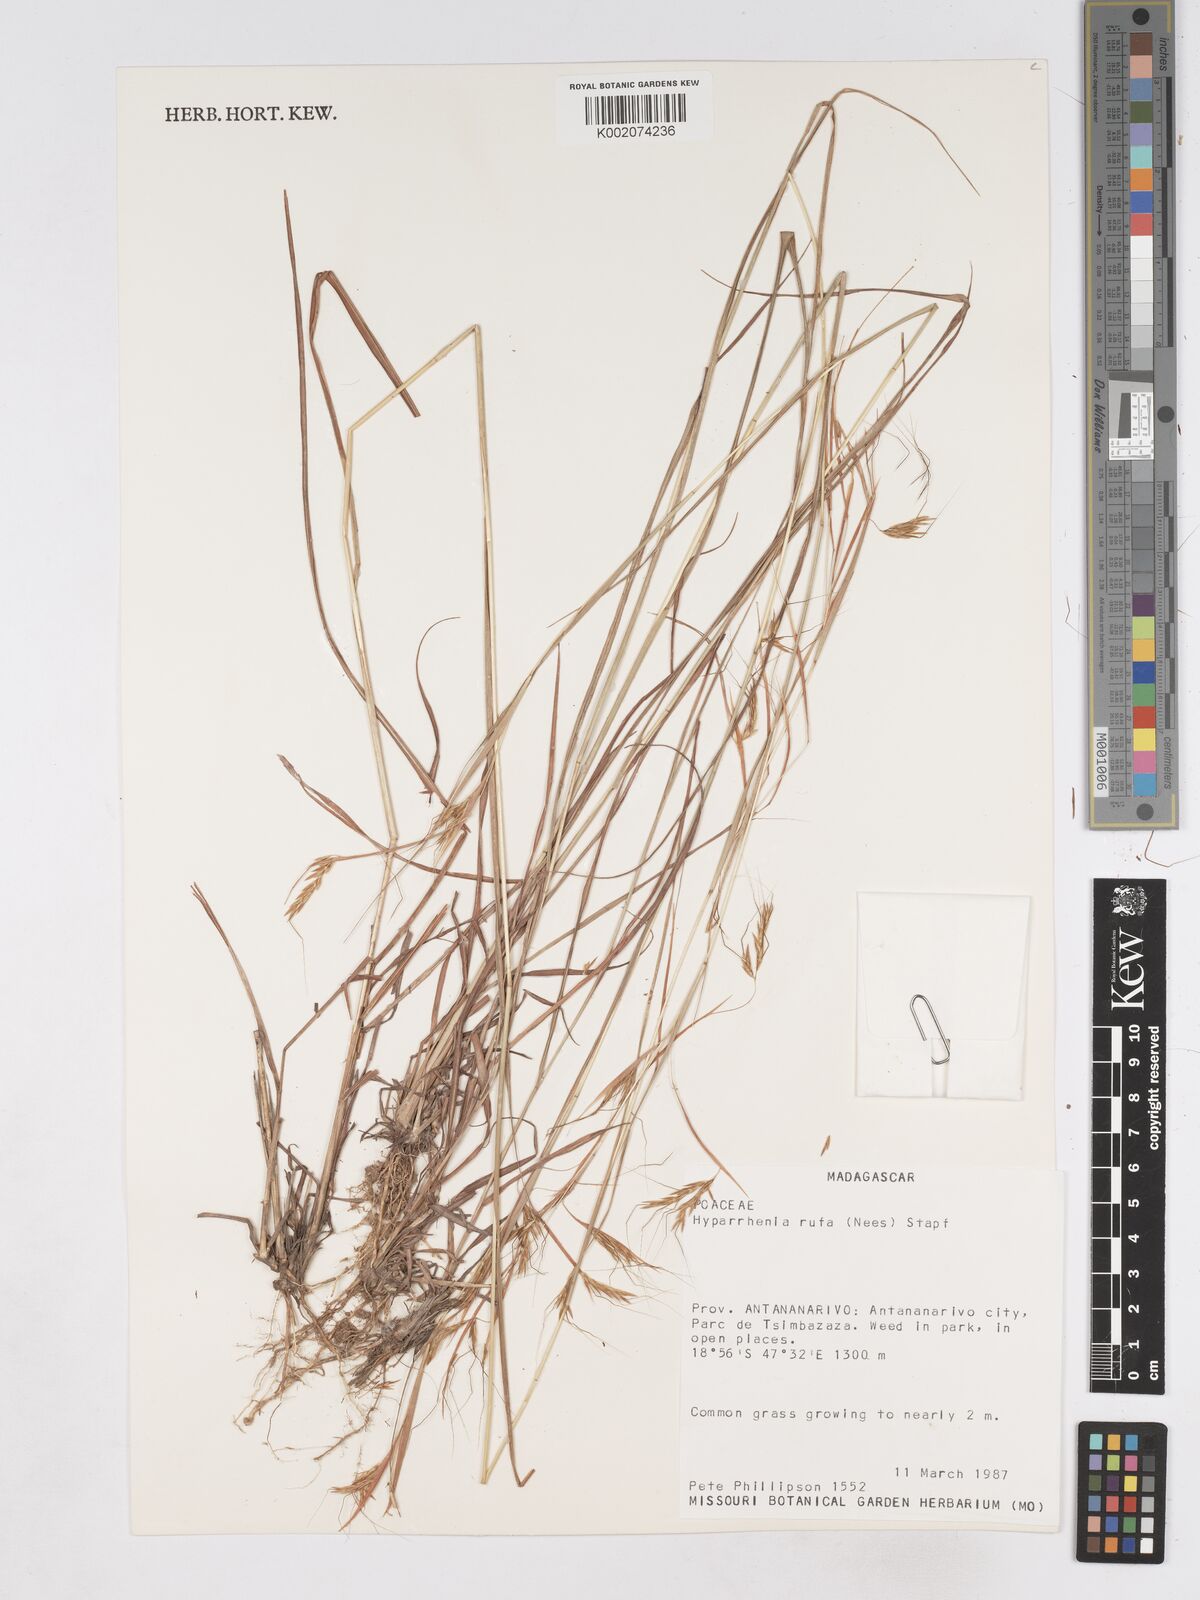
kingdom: Plantae
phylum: Tracheophyta
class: Liliopsida
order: Poales
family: Poaceae
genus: Hyparrhenia
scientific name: Hyparrhenia rufa
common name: Jaraguagrass
